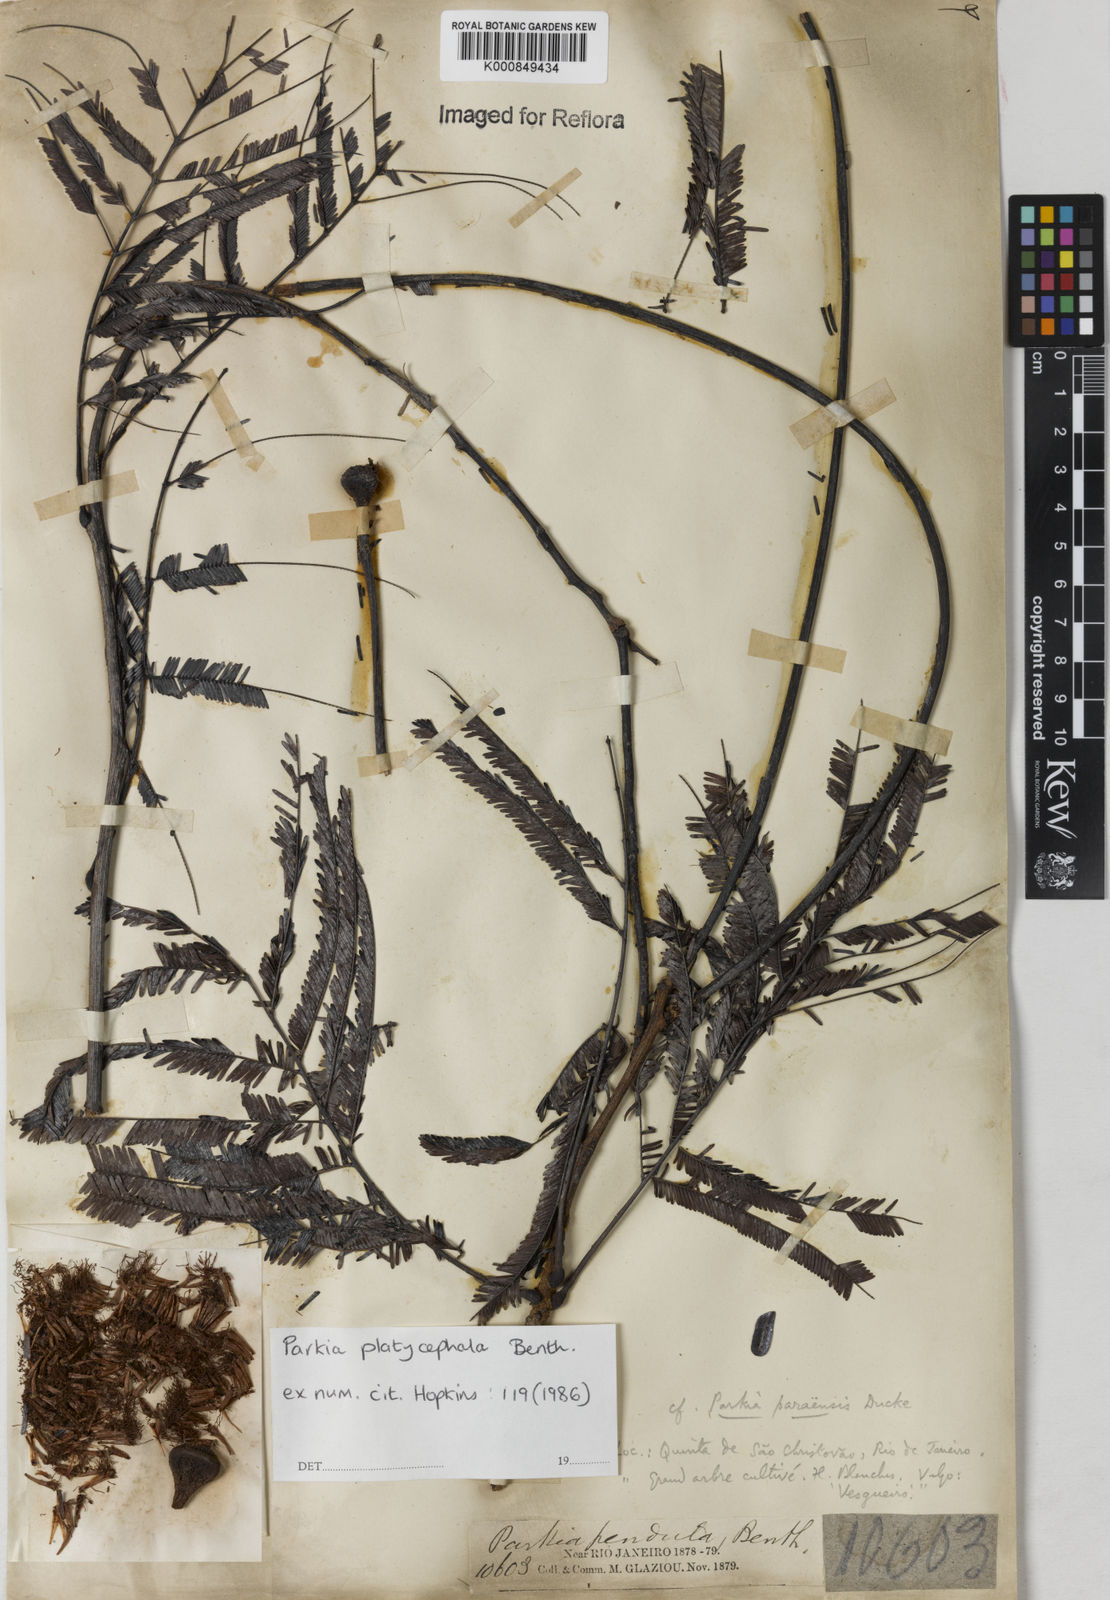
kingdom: Plantae
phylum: Tracheophyta
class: Magnoliopsida
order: Fabales
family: Fabaceae
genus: Parkia
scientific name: Parkia platycephala
